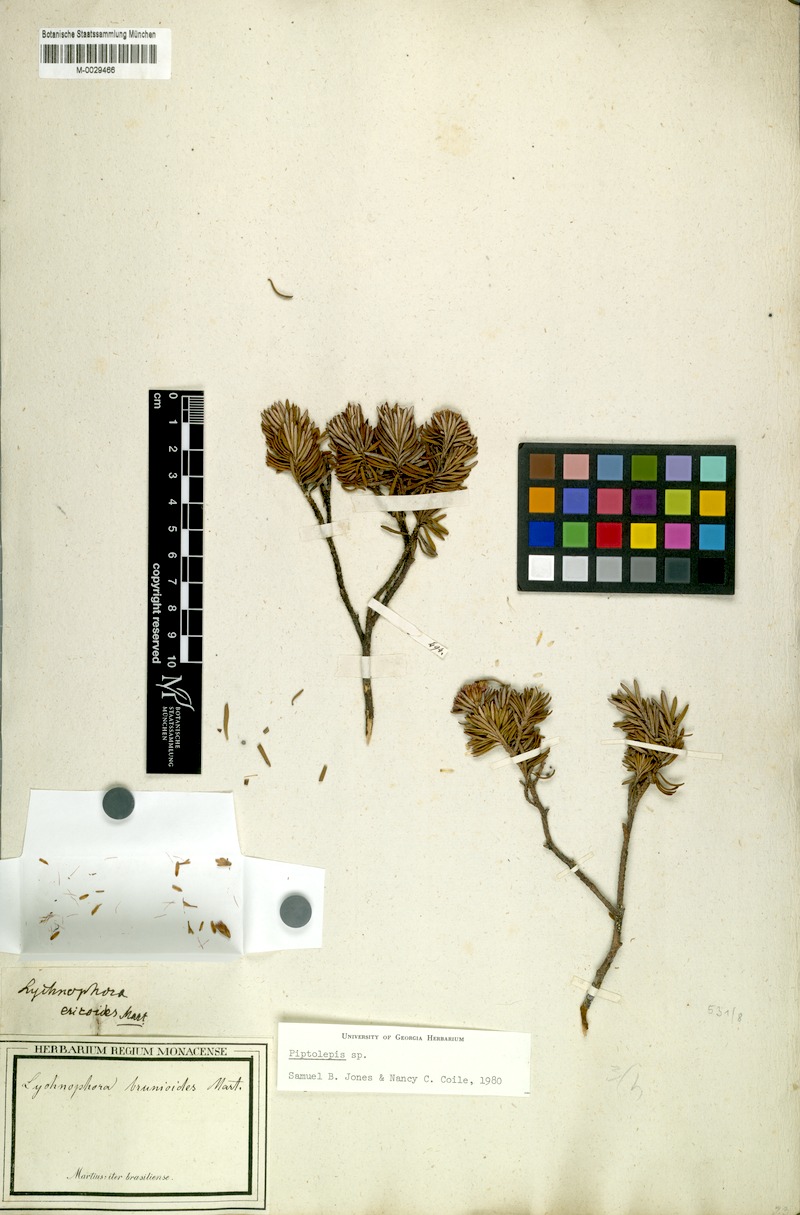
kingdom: Plantae
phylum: Tracheophyta
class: Magnoliopsida
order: Asterales
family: Asteraceae
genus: Lychnophora
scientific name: Lychnophora brunioides
